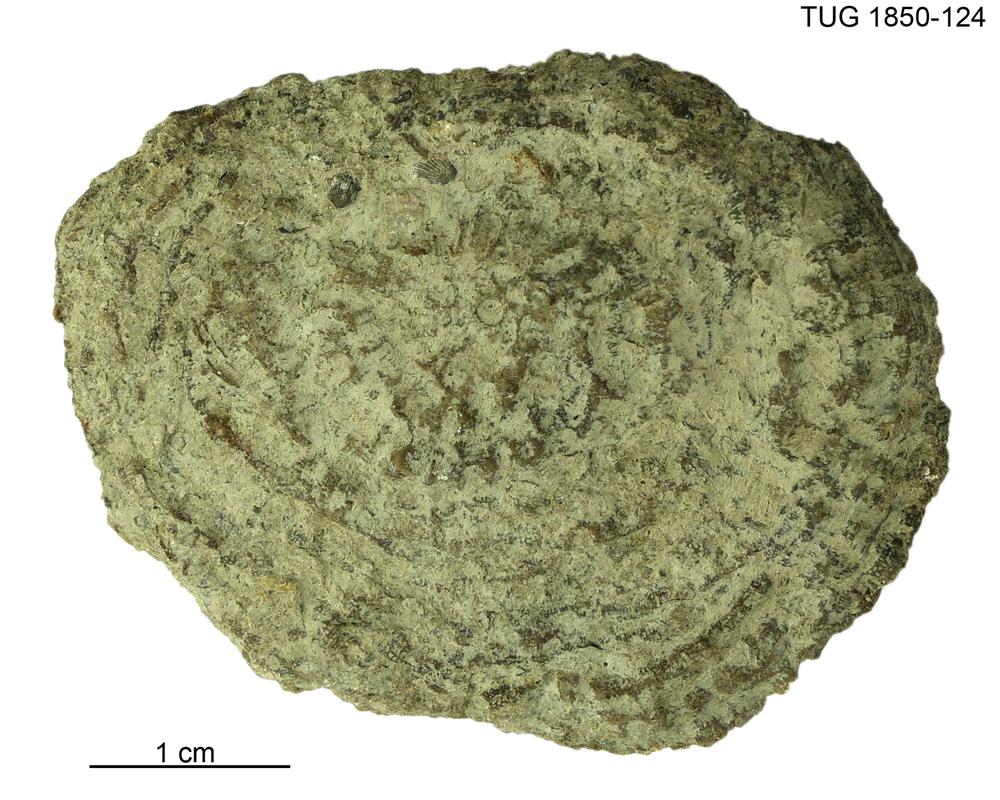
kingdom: Animalia
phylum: Cnidaria
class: Anthozoa
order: Heliolitina
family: Heliolitidae
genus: Heliolites
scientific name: Heliolites
